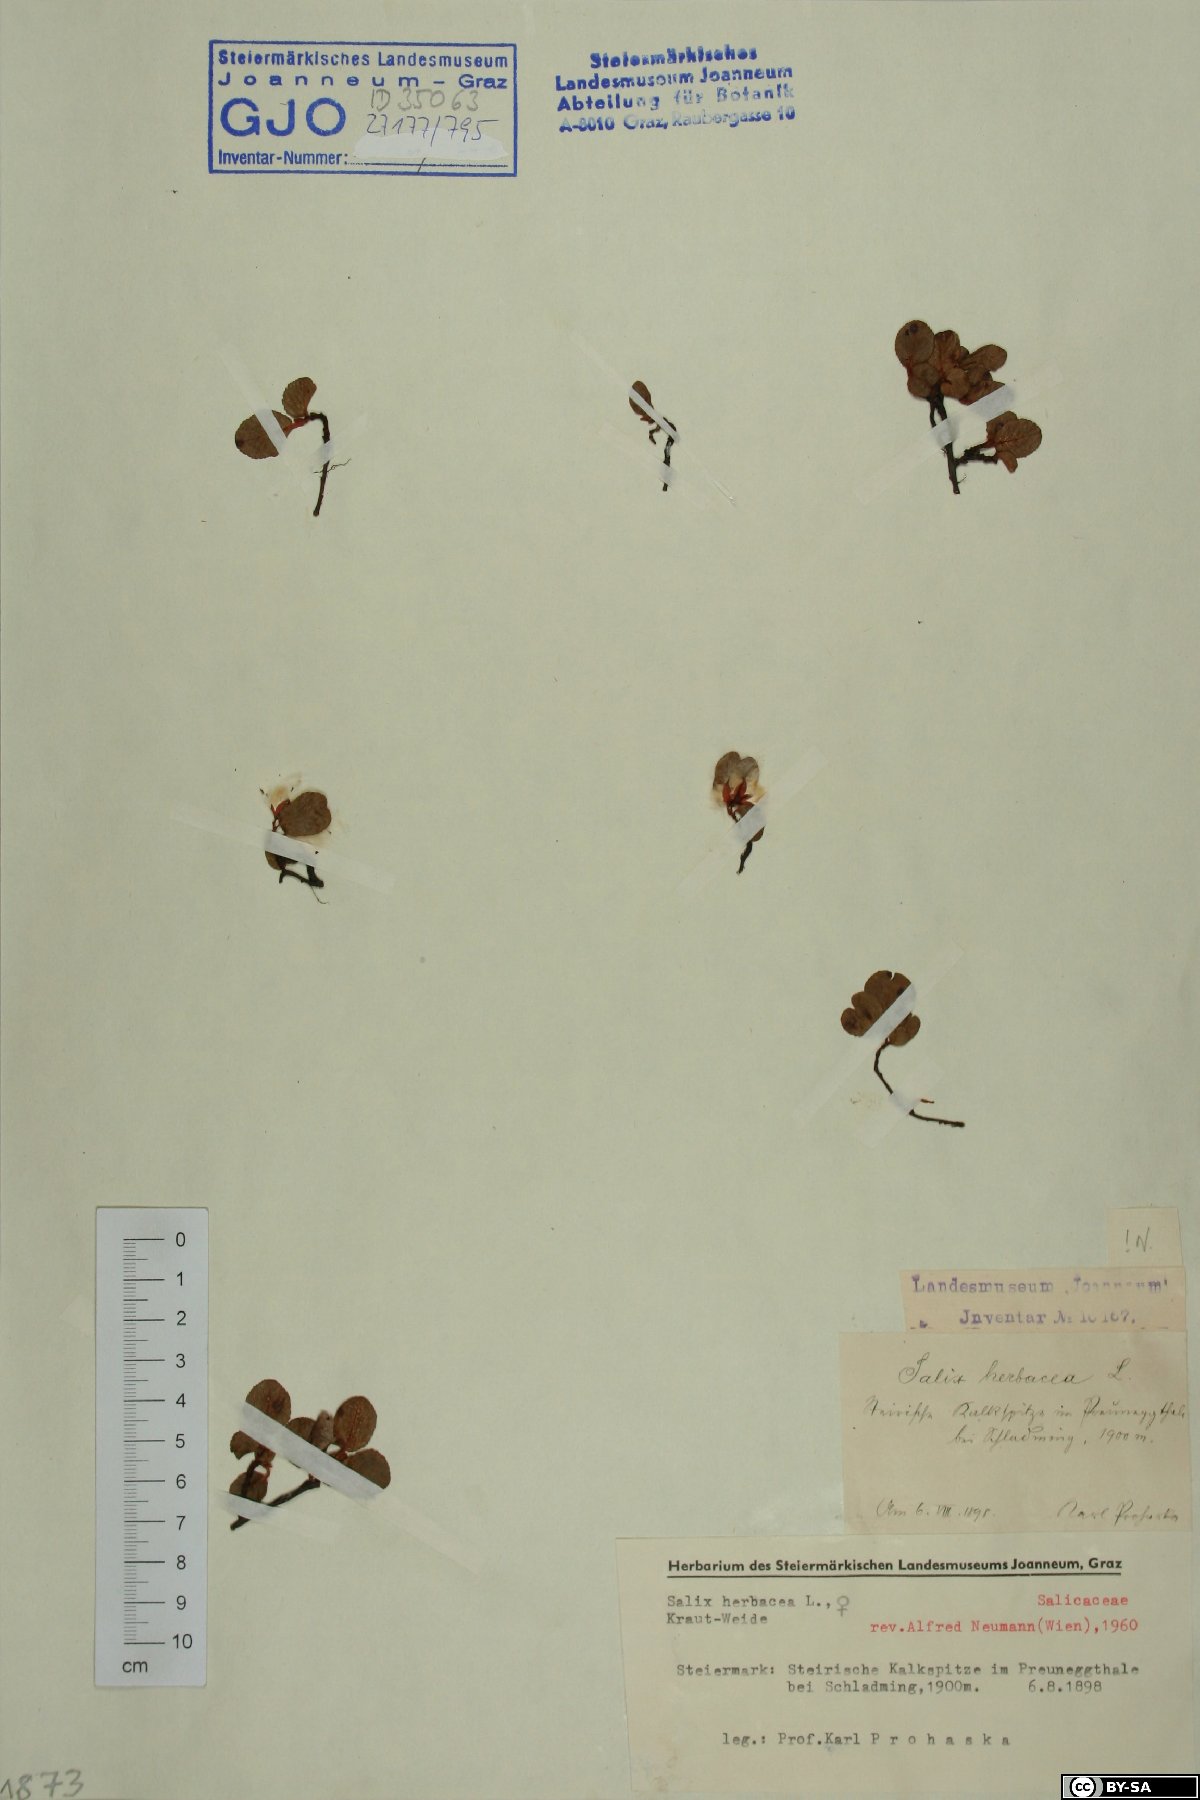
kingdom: Plantae
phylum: Tracheophyta
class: Magnoliopsida
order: Malpighiales
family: Salicaceae
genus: Salix
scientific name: Salix herbacea
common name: Dwarf willow
